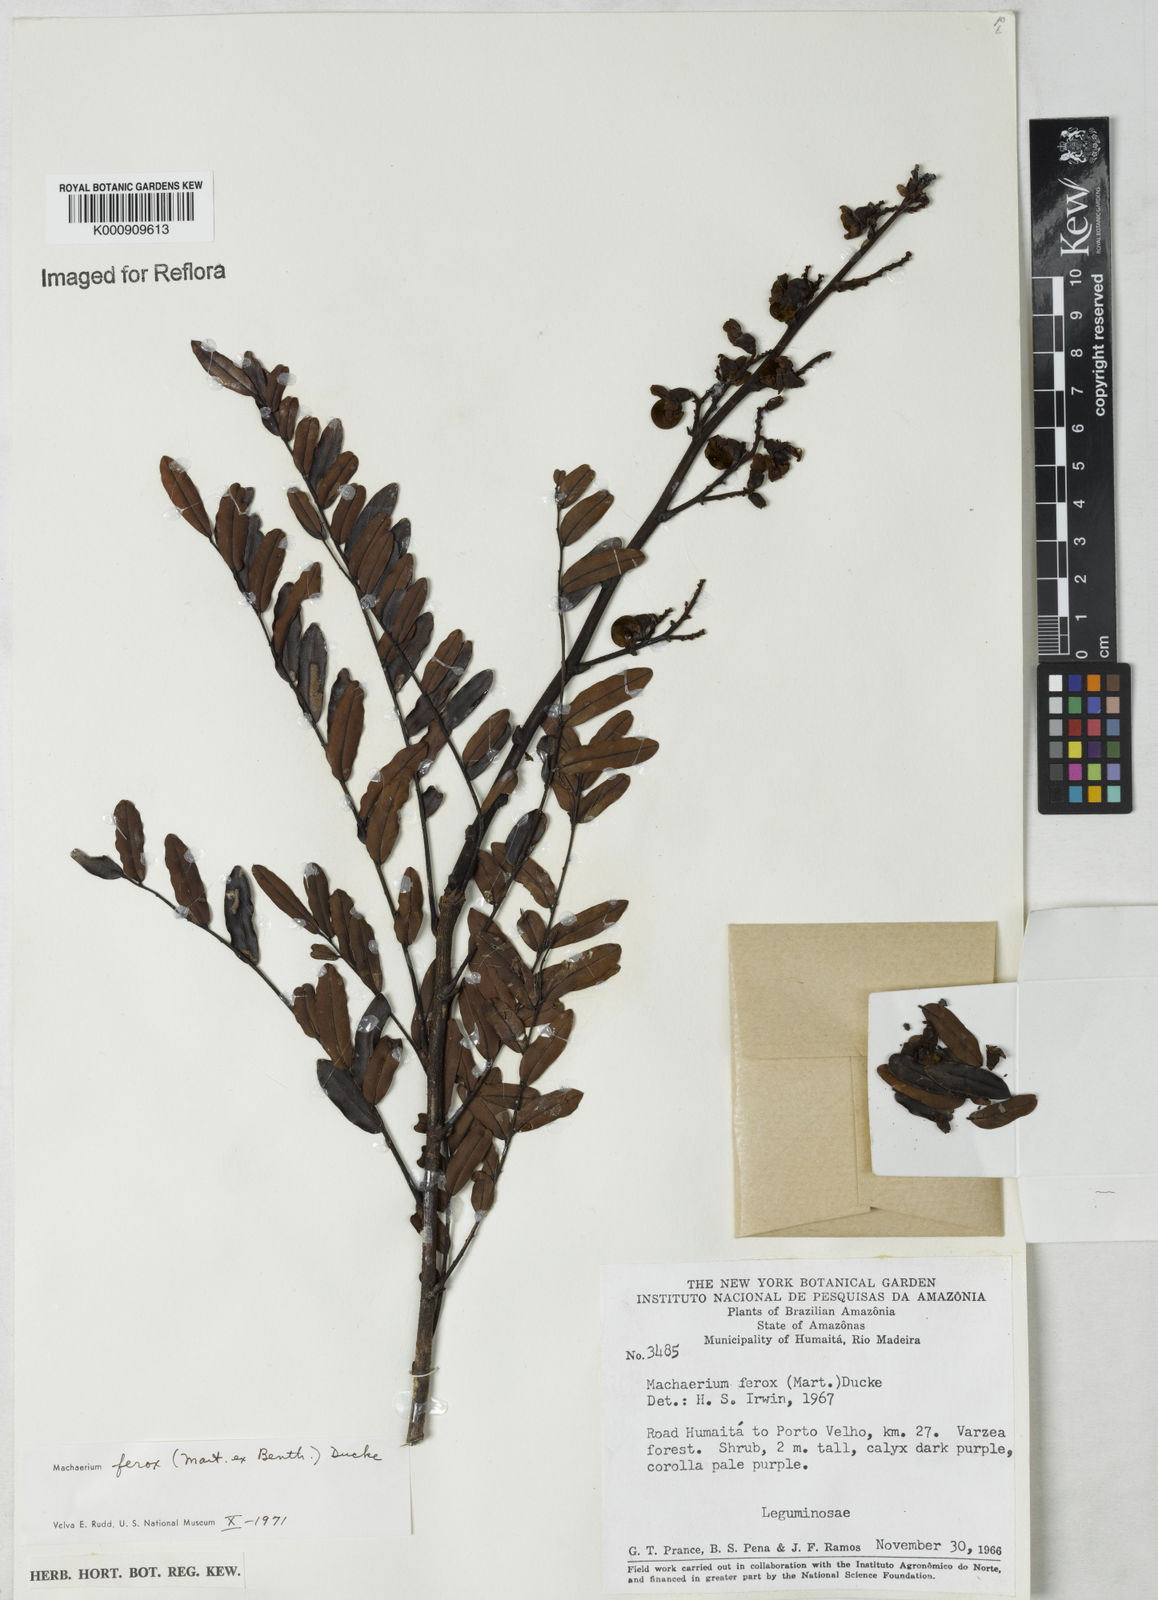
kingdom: Plantae
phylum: Tracheophyta
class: Magnoliopsida
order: Fabales
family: Fabaceae
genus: Machaerium
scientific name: Machaerium ferox
